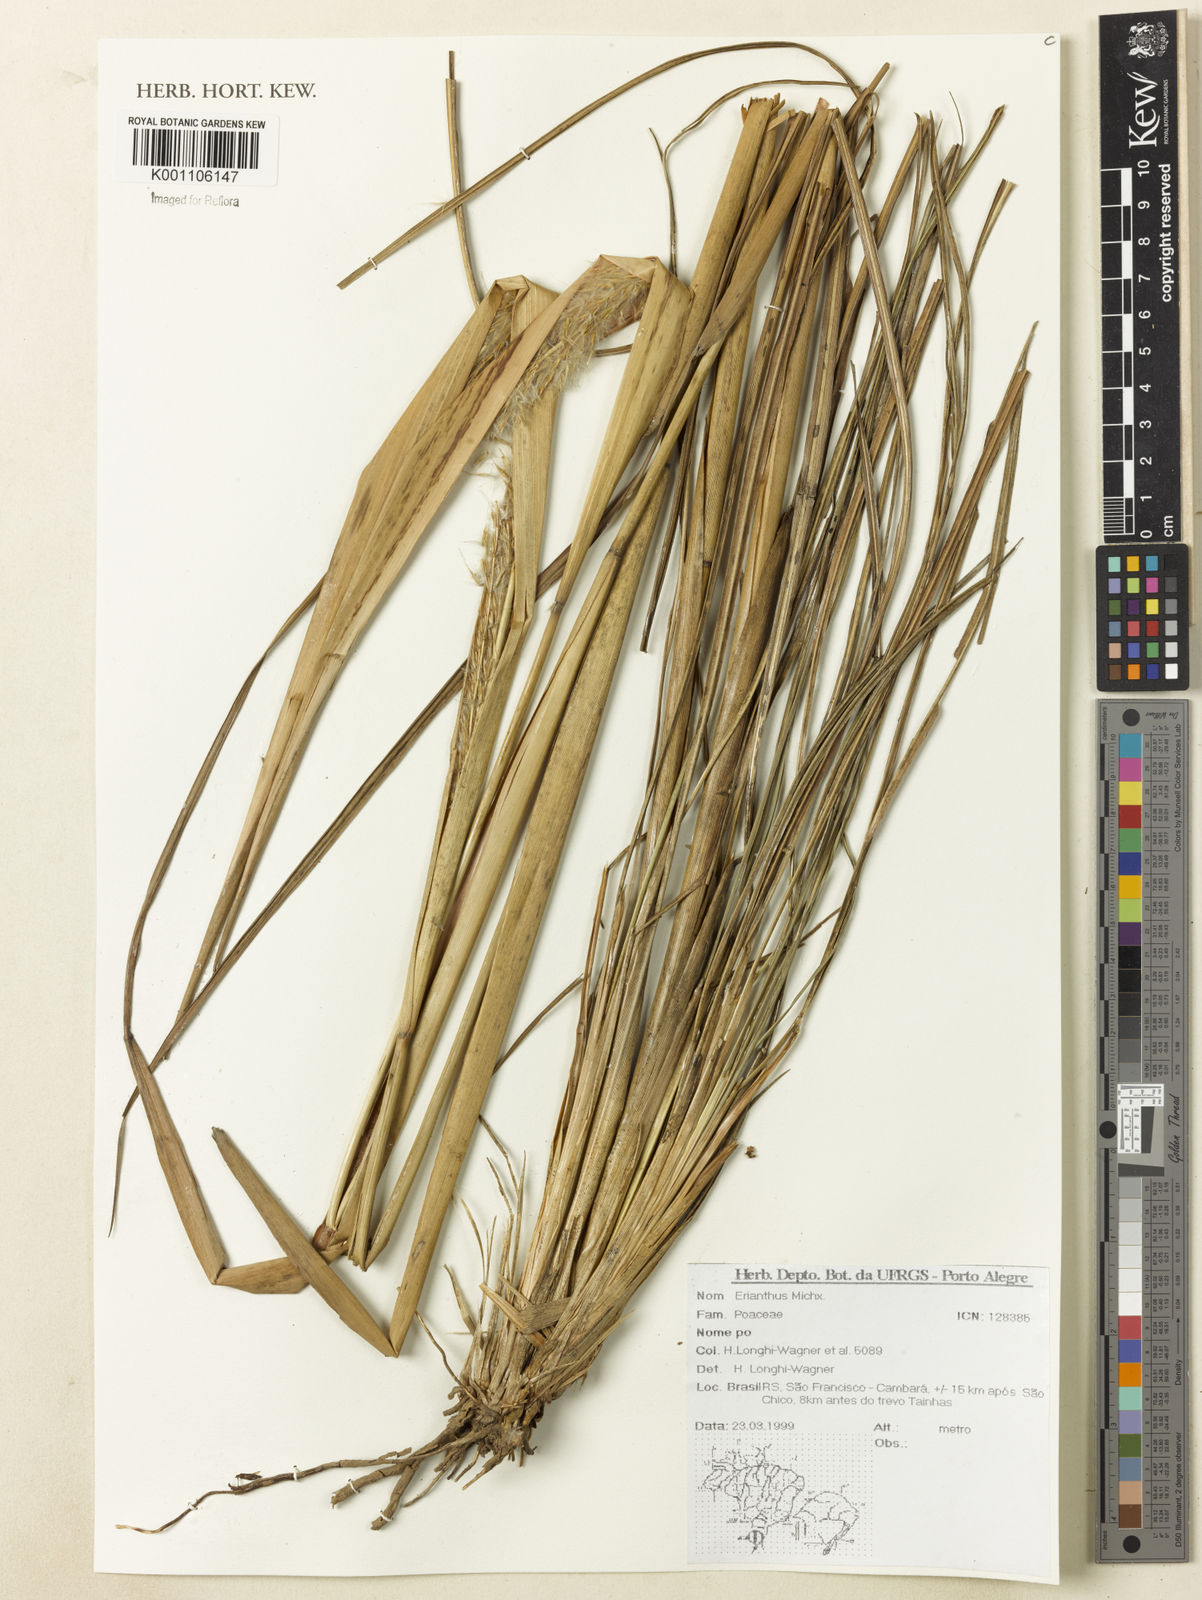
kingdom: Plantae
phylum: Tracheophyta
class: Liliopsida
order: Poales
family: Poaceae
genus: Saccharum
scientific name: Saccharum
